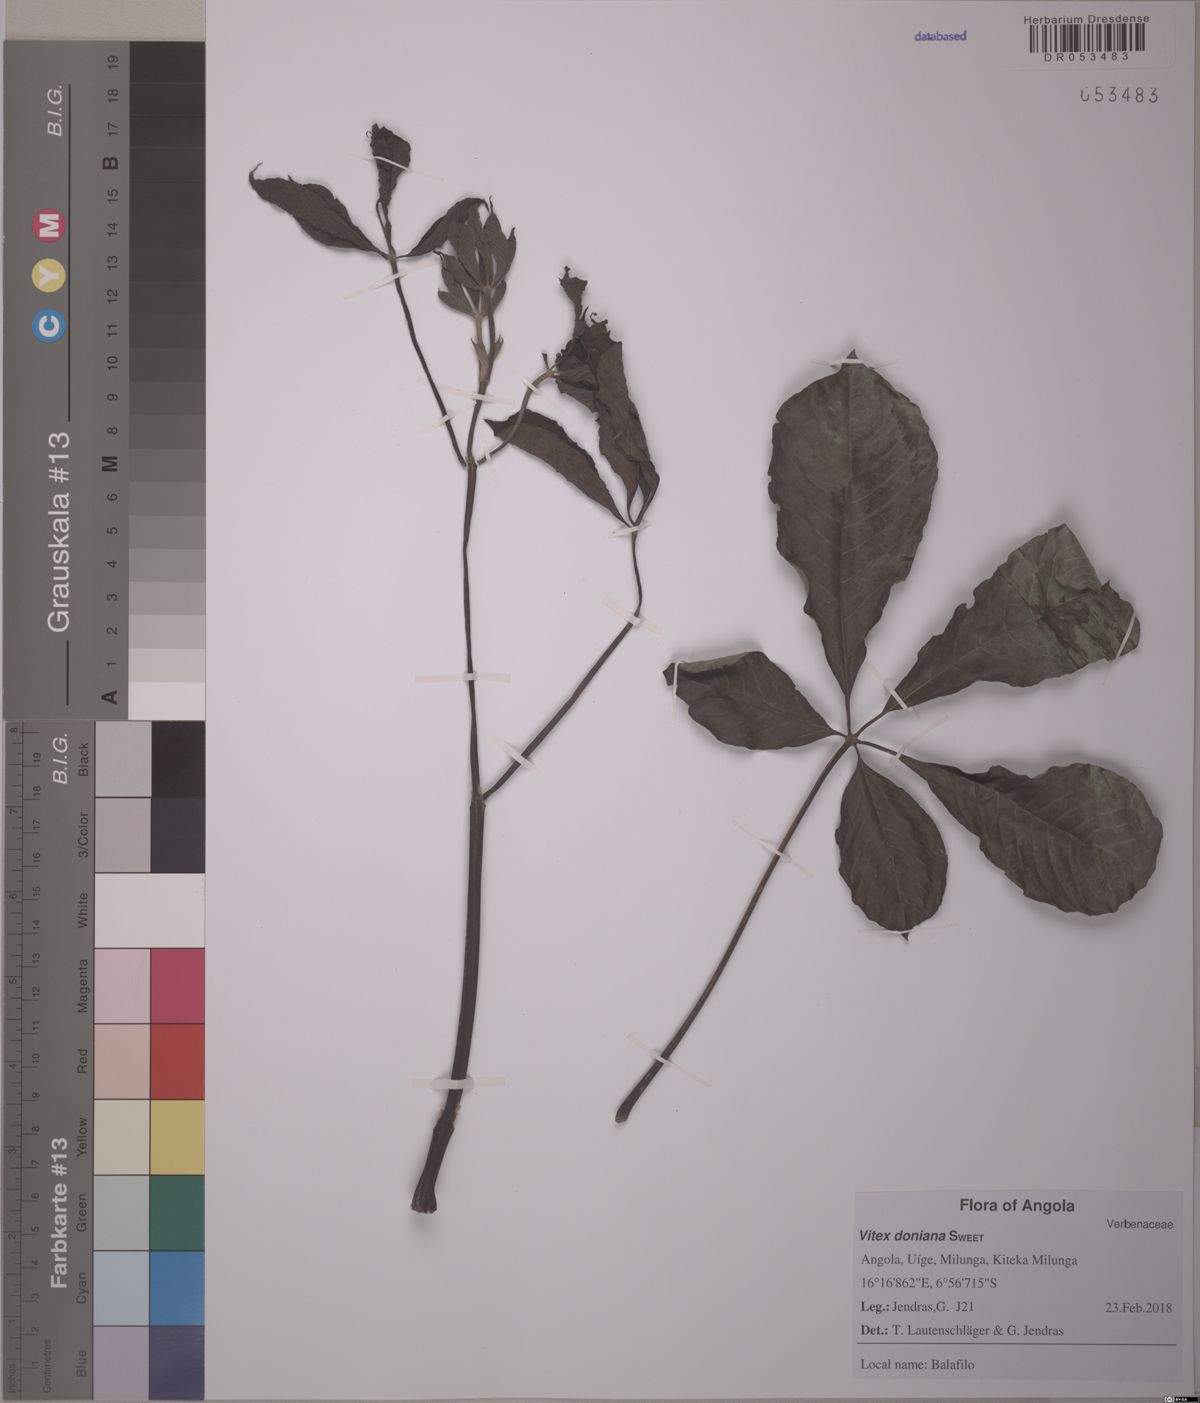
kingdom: Plantae
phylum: Tracheophyta
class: Magnoliopsida
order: Lamiales
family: Lamiaceae
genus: Vitex
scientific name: Vitex doniana
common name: Black plum
